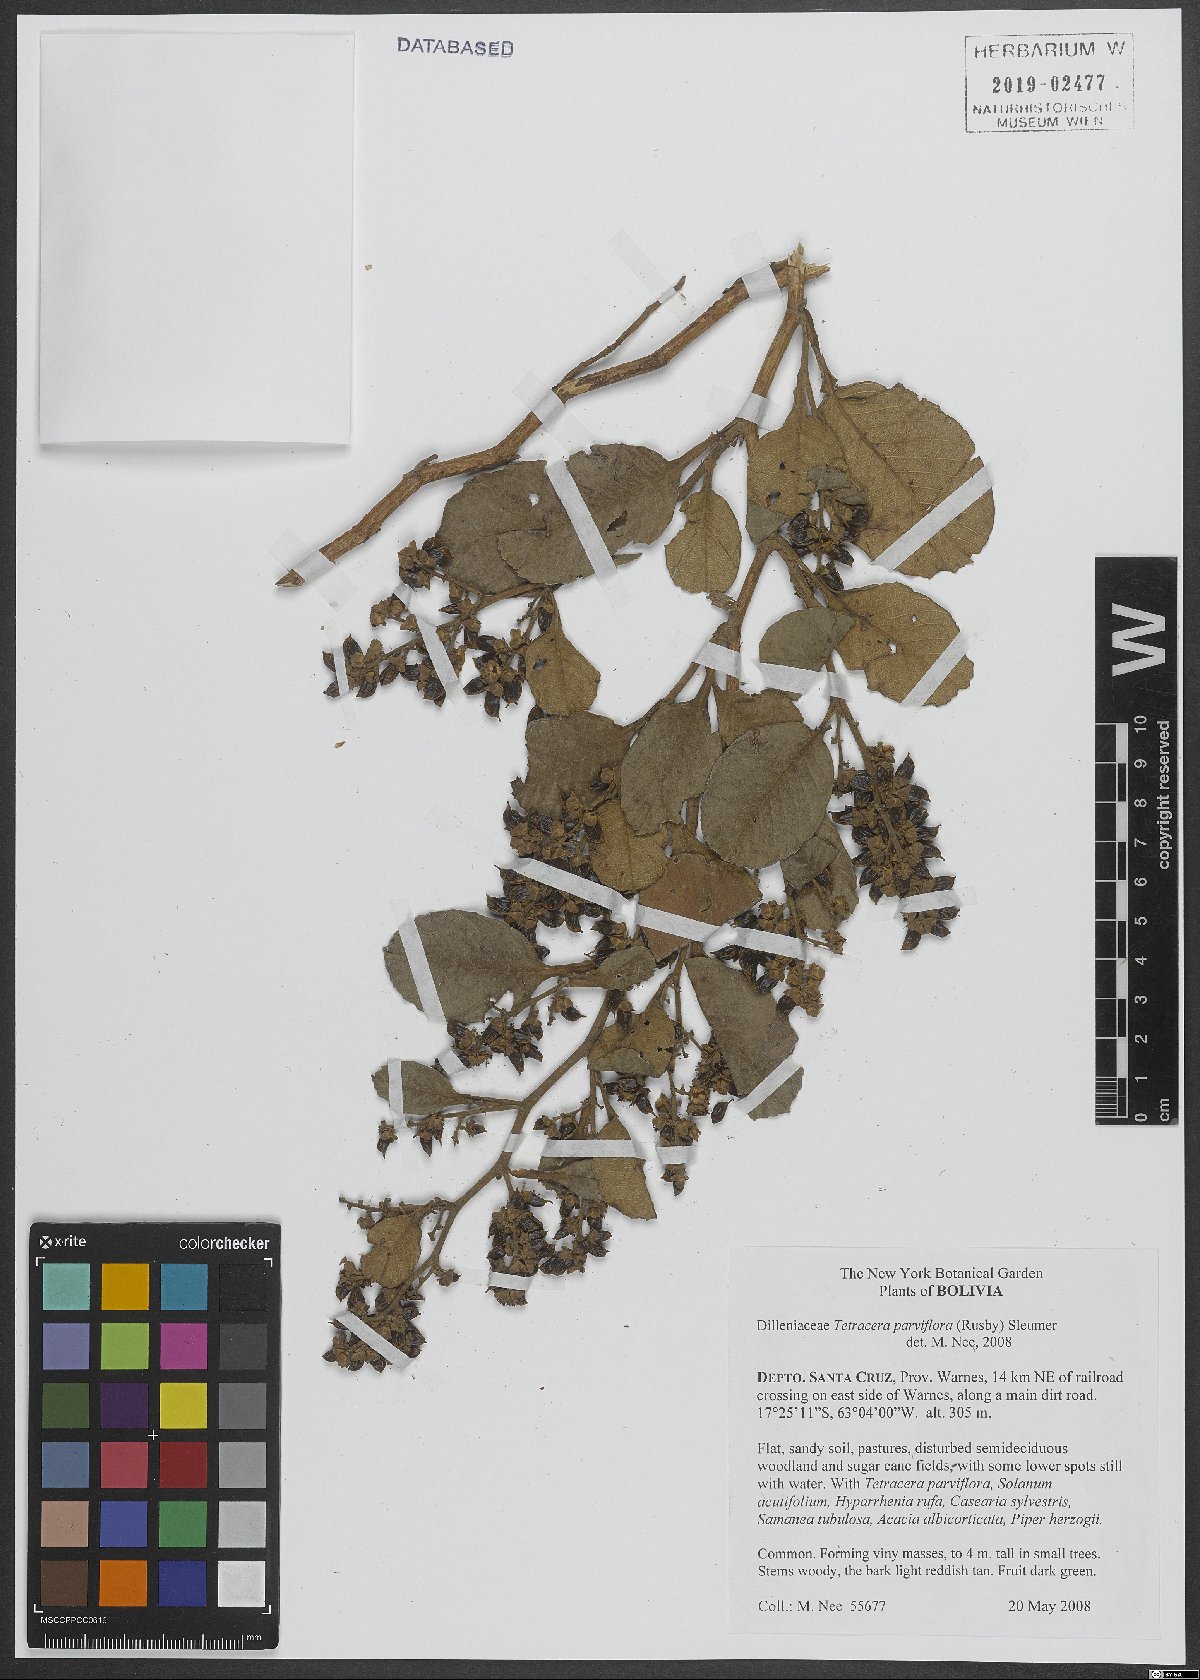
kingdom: Plantae
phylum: Tracheophyta
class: Magnoliopsida
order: Dilleniales
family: Dilleniaceae
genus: Tetracera
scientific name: Tetracera parviflora
